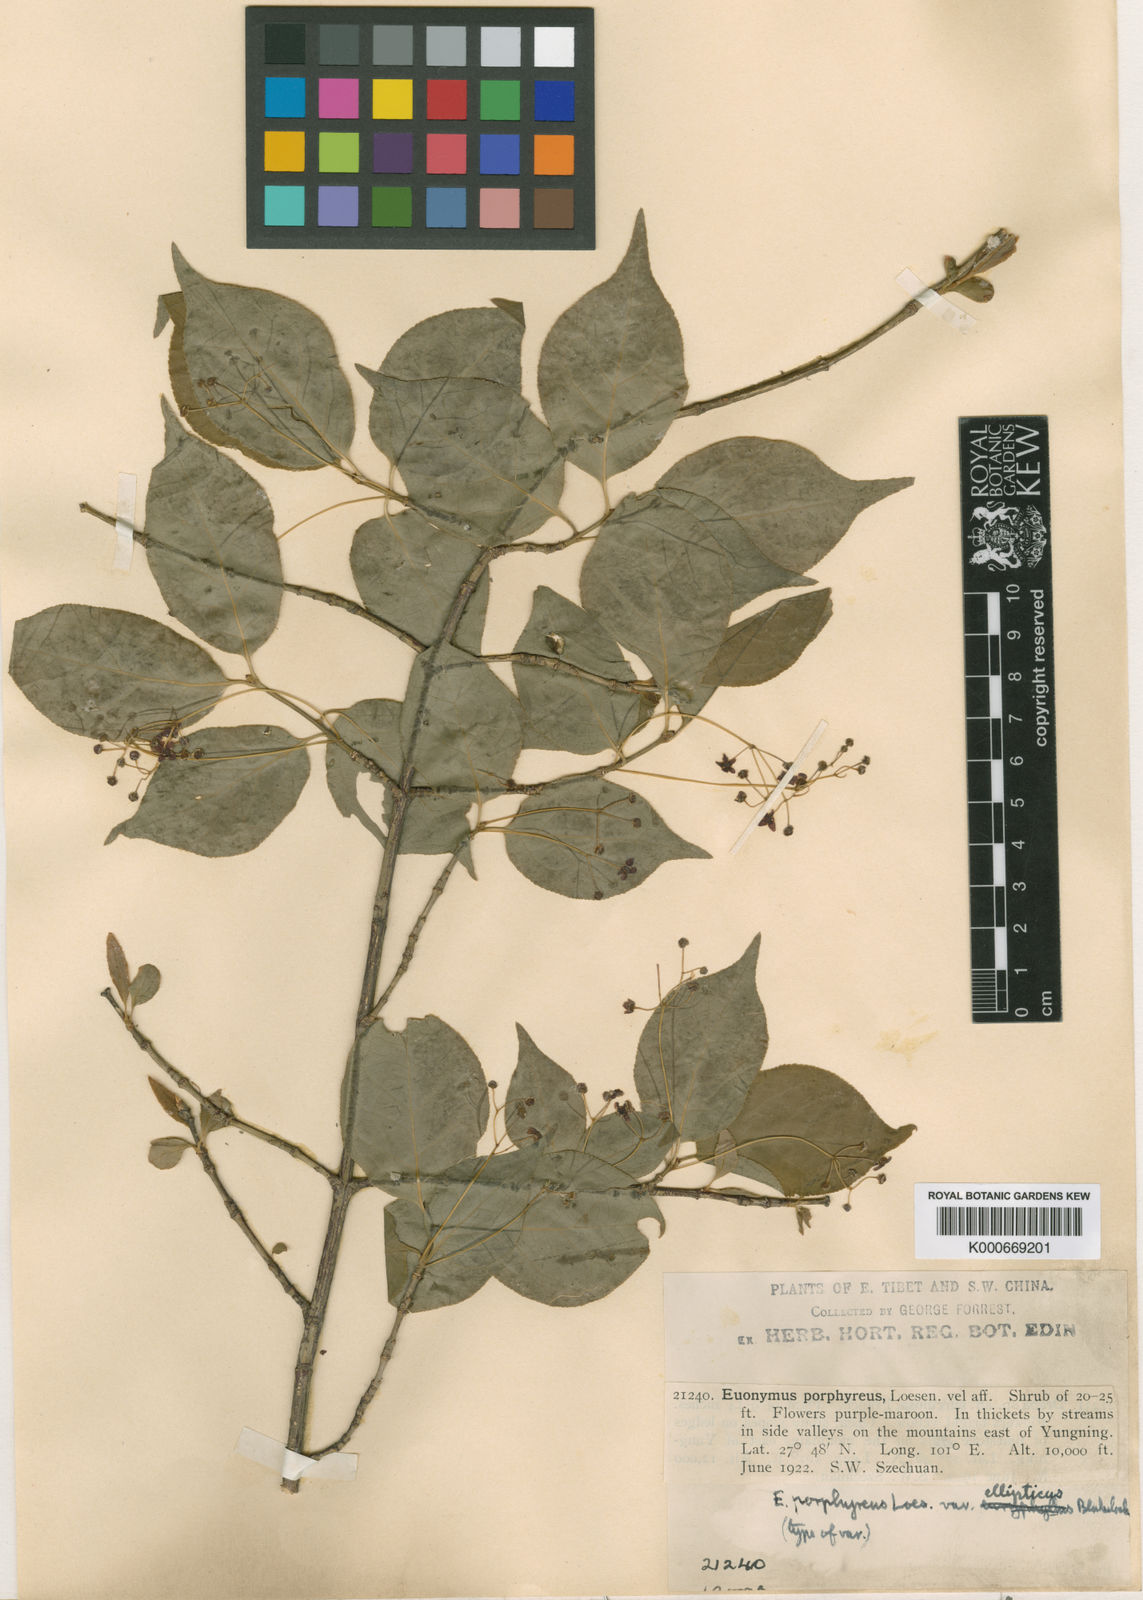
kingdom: Plantae
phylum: Tracheophyta
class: Magnoliopsida
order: Celastrales
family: Celastraceae
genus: Euonymus
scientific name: Euonymus frigidus
